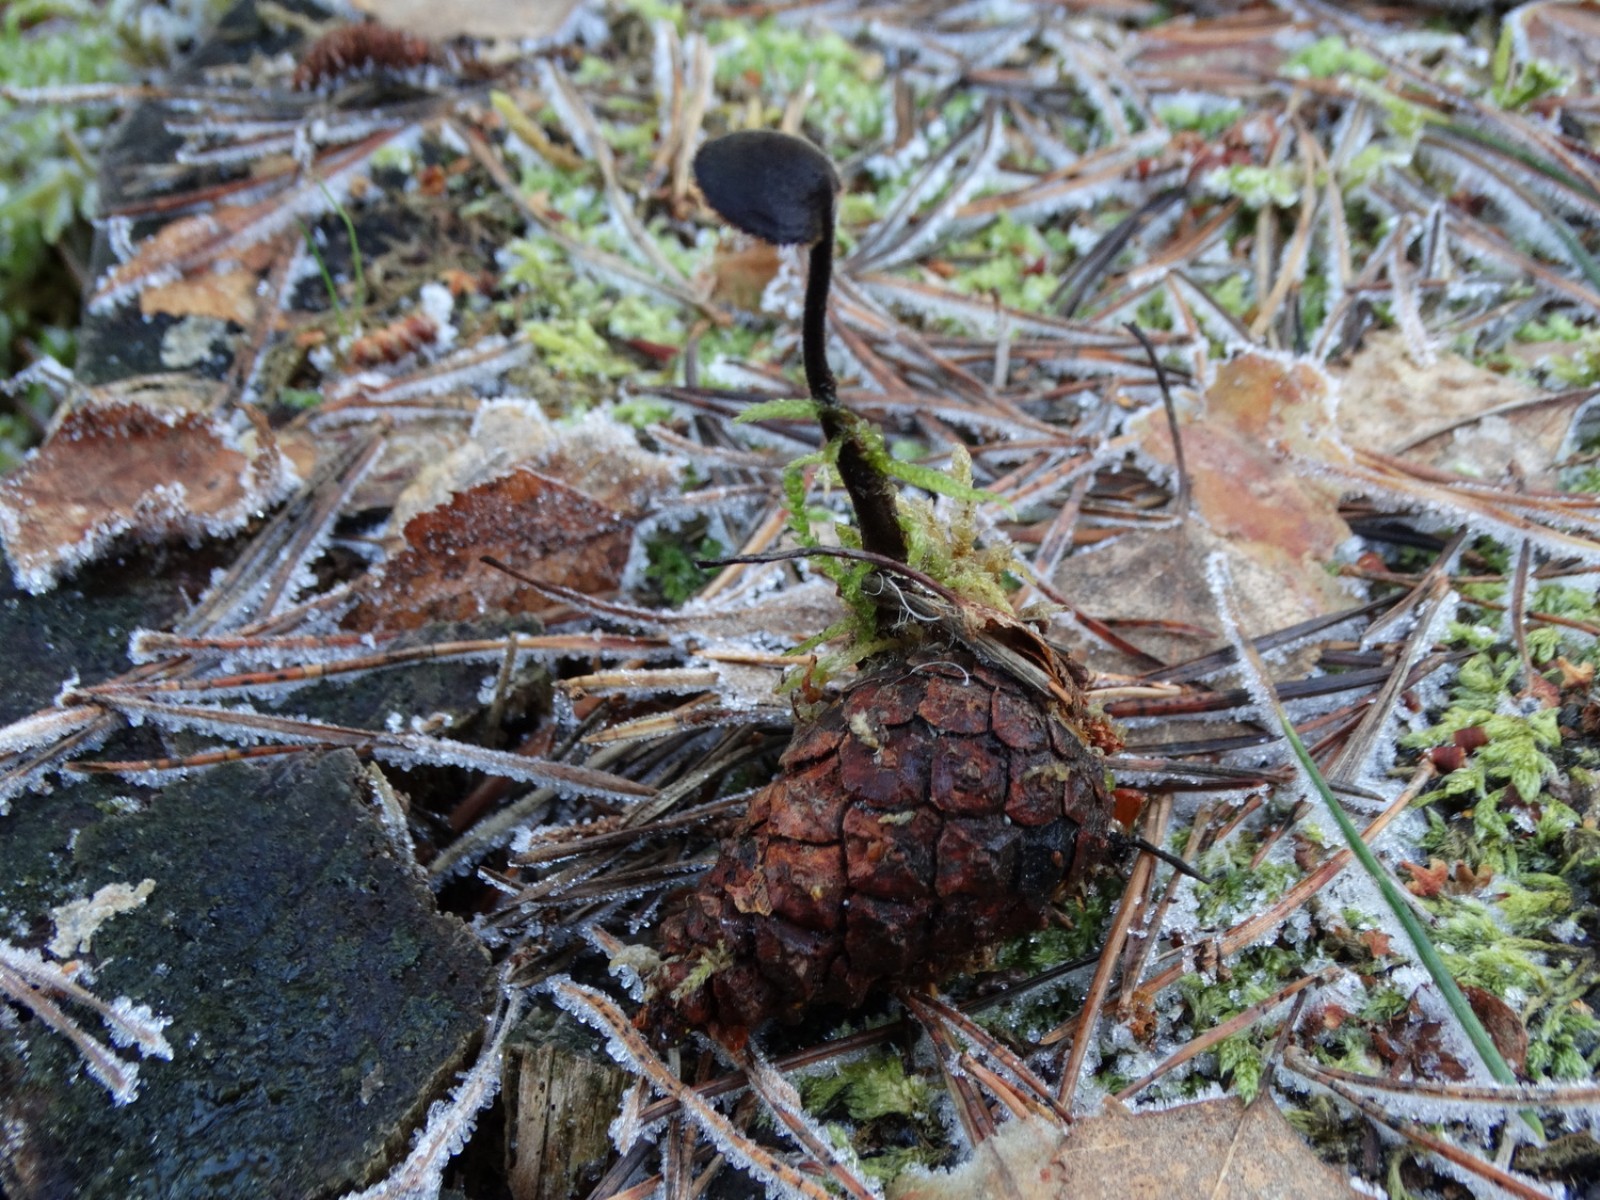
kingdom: Fungi
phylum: Basidiomycota
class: Agaricomycetes
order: Russulales
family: Auriscalpiaceae
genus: Auriscalpium
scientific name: Auriscalpium vulgare
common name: koglepigsvamp
